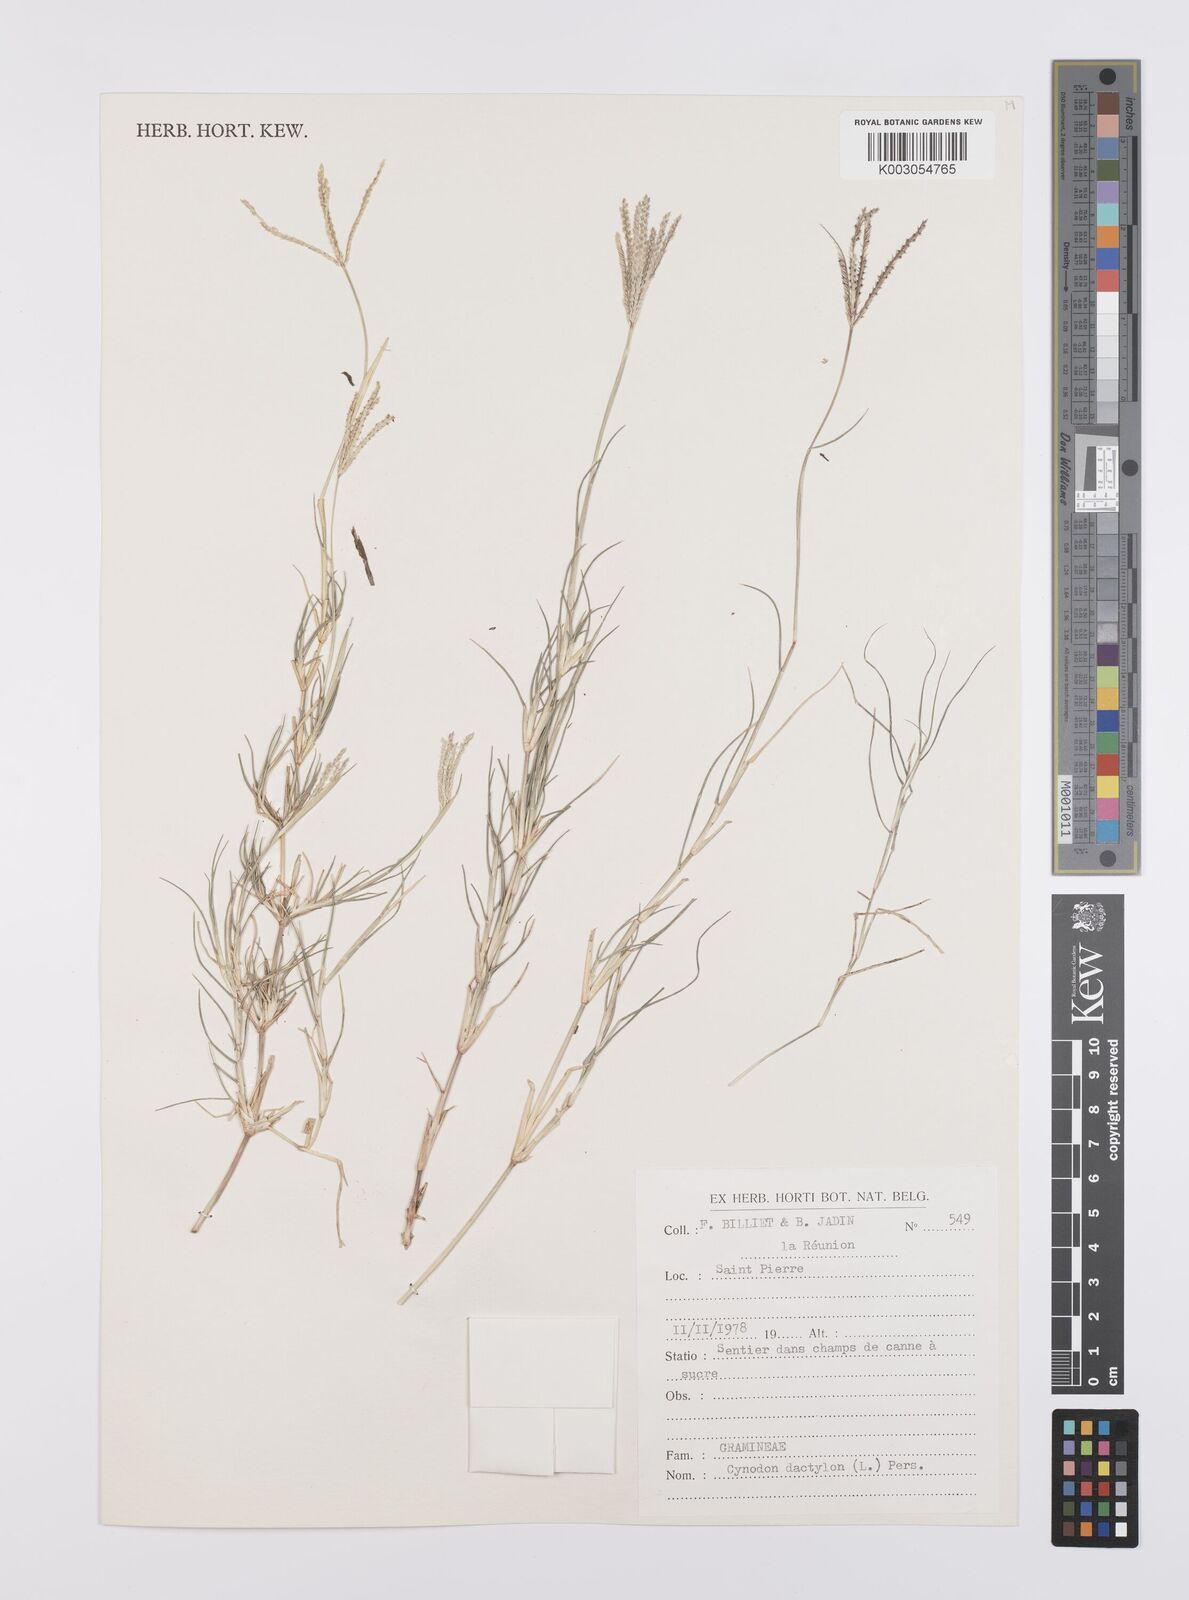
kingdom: Plantae
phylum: Tracheophyta
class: Liliopsida
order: Poales
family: Poaceae
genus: Cynodon
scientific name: Cynodon dactylon
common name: Bermuda grass
